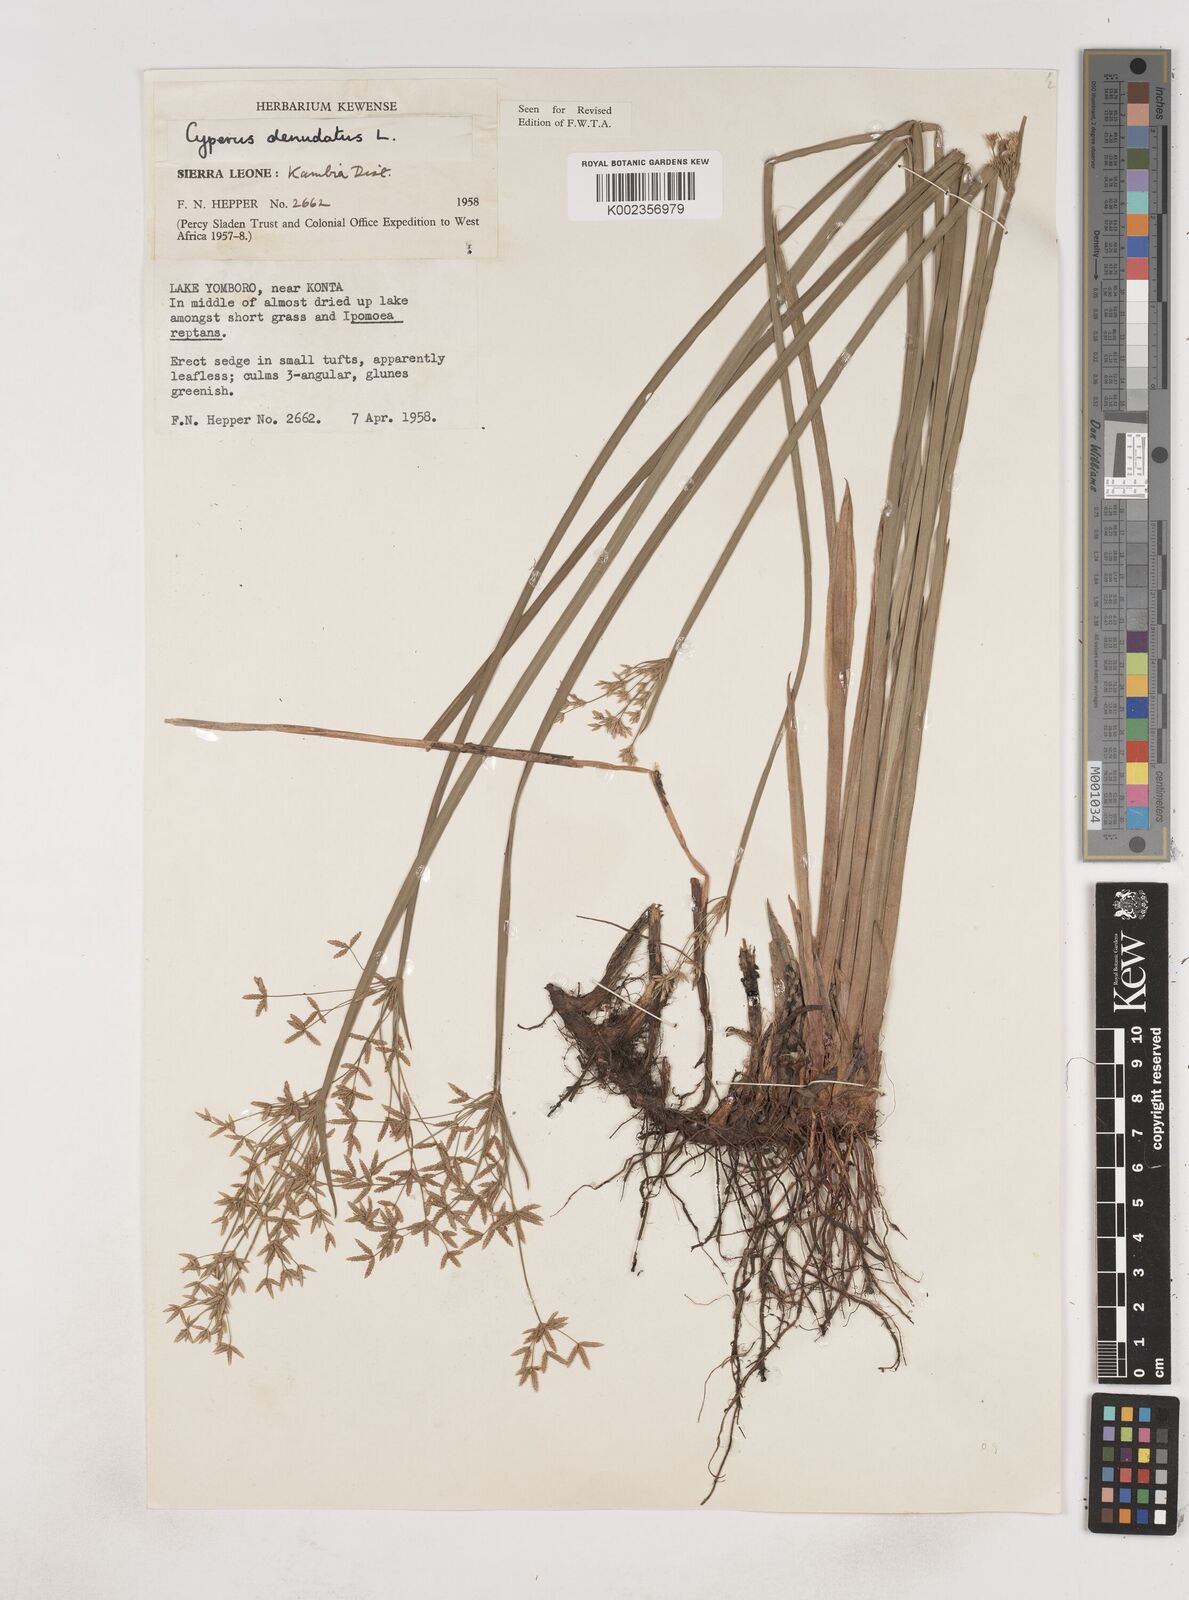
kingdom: Plantae
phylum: Tracheophyta
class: Liliopsida
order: Poales
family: Cyperaceae
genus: Cyperus
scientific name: Cyperus denudatus
